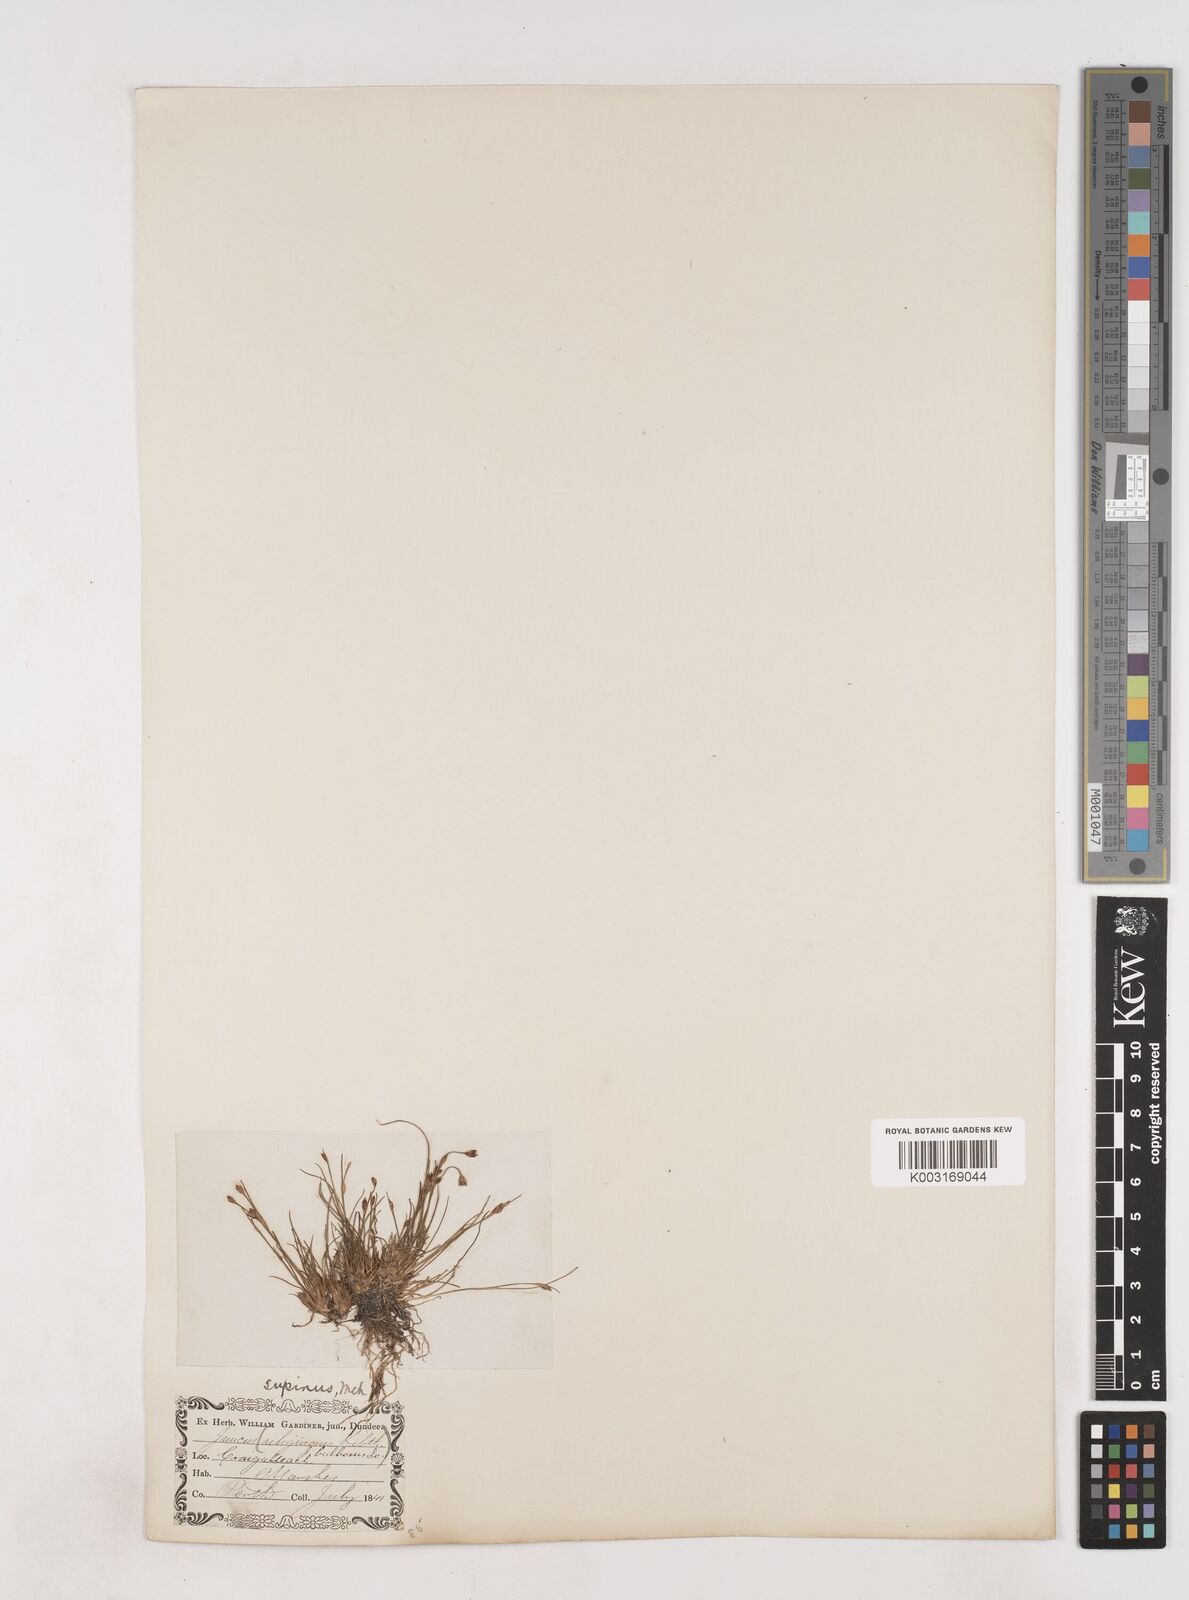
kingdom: Plantae
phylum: Tracheophyta
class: Liliopsida
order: Poales
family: Juncaceae
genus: Juncus
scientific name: Juncus bulbosus
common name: Bulbous rush
